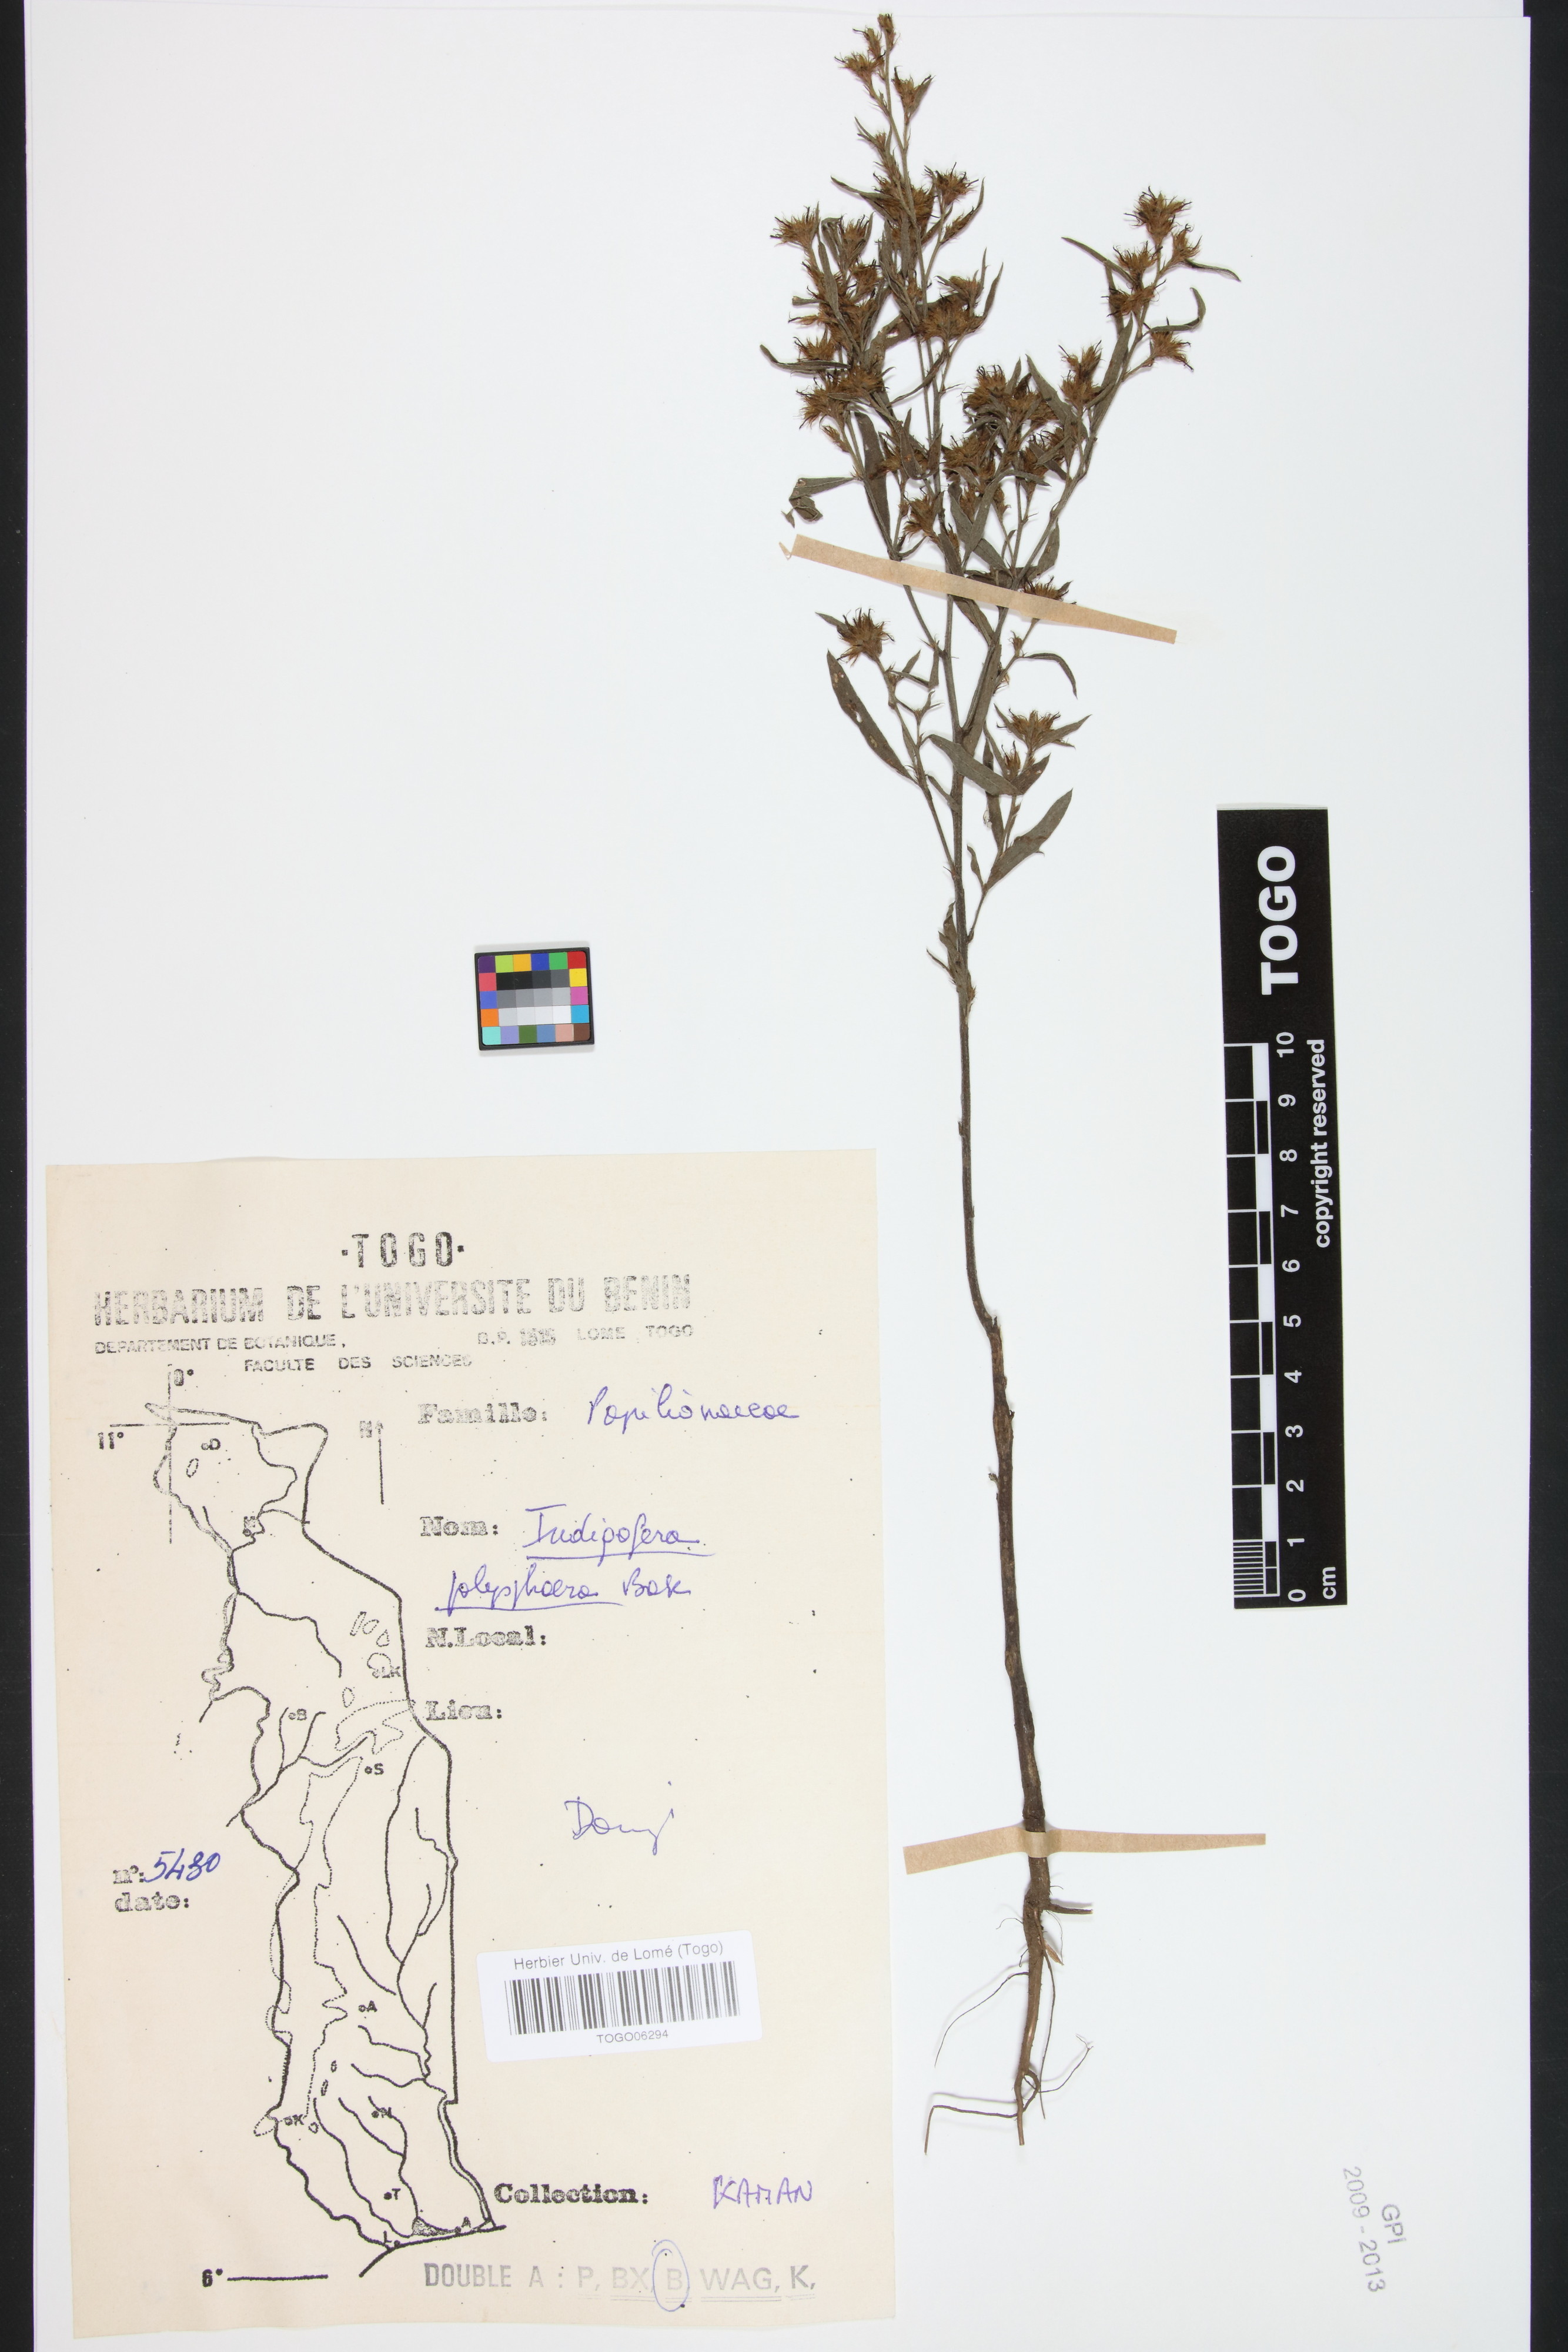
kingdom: Plantae
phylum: Tracheophyta
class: Magnoliopsida
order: Fabales
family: Fabaceae
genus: Indigofera
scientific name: Indigofera polysphaera
